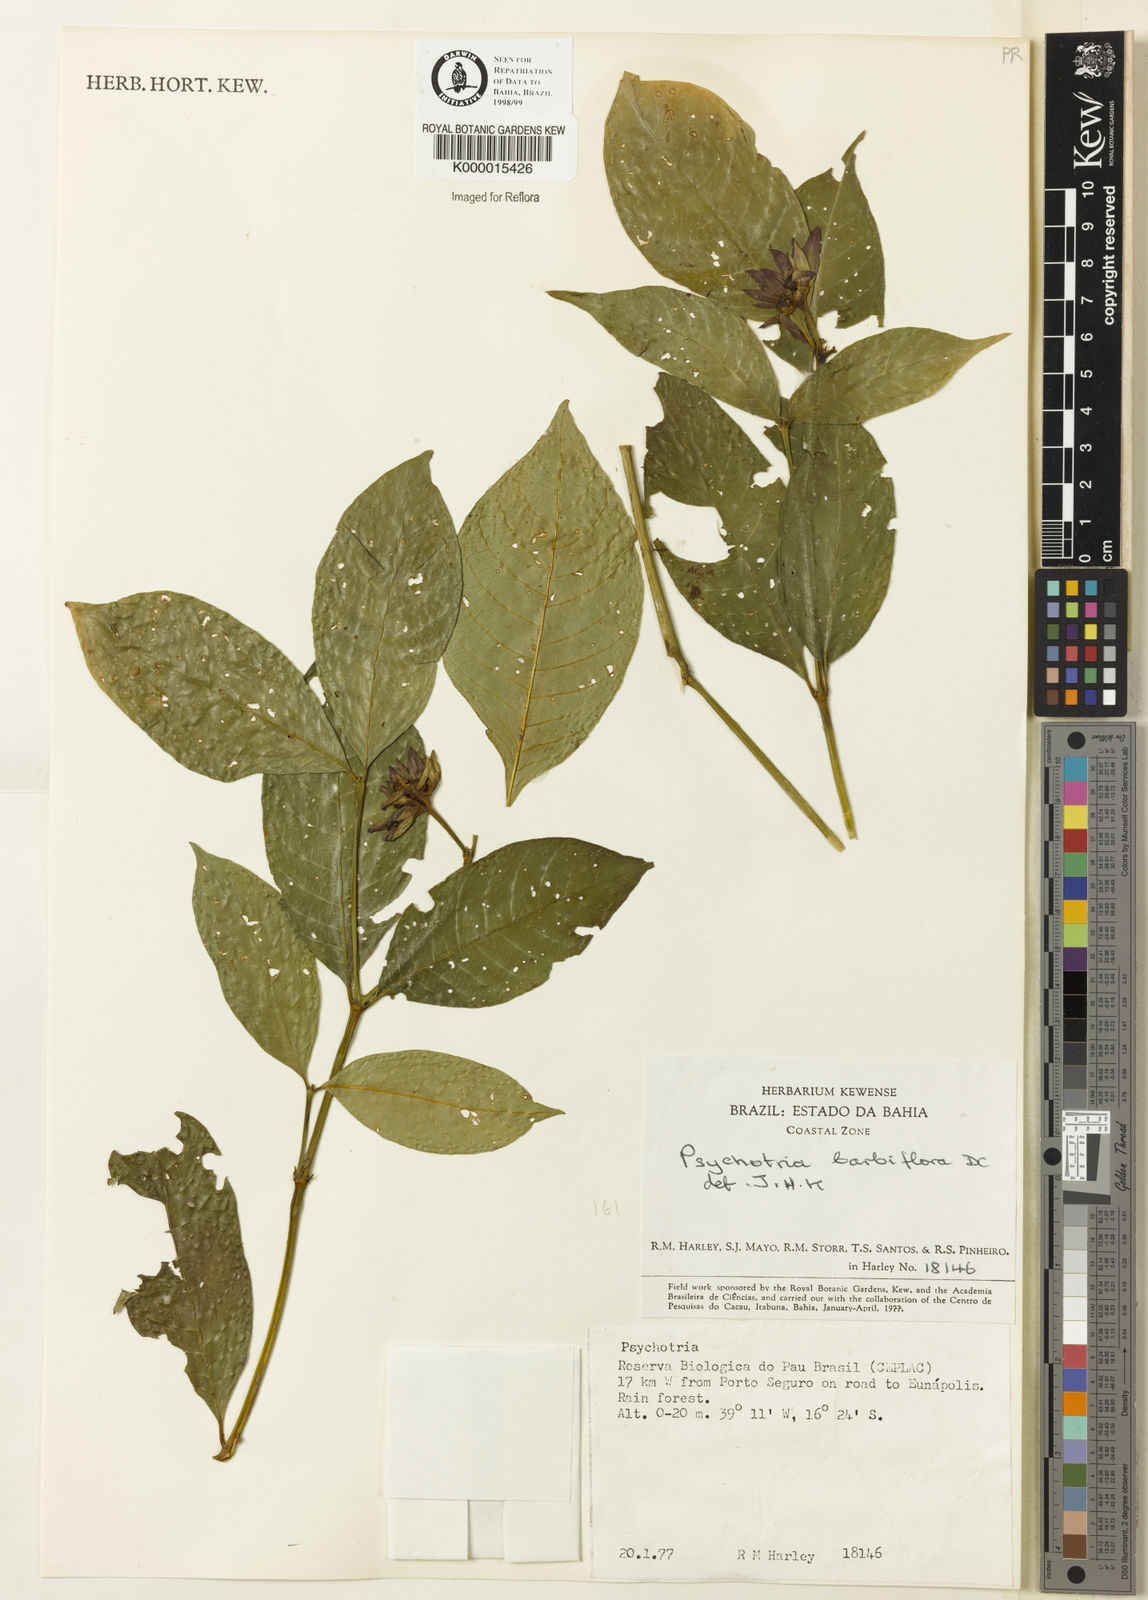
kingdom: Plantae
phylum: Tracheophyta
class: Magnoliopsida
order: Gentianales
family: Rubiaceae
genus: Palicourea
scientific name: Palicourea hoffmannseggiana
